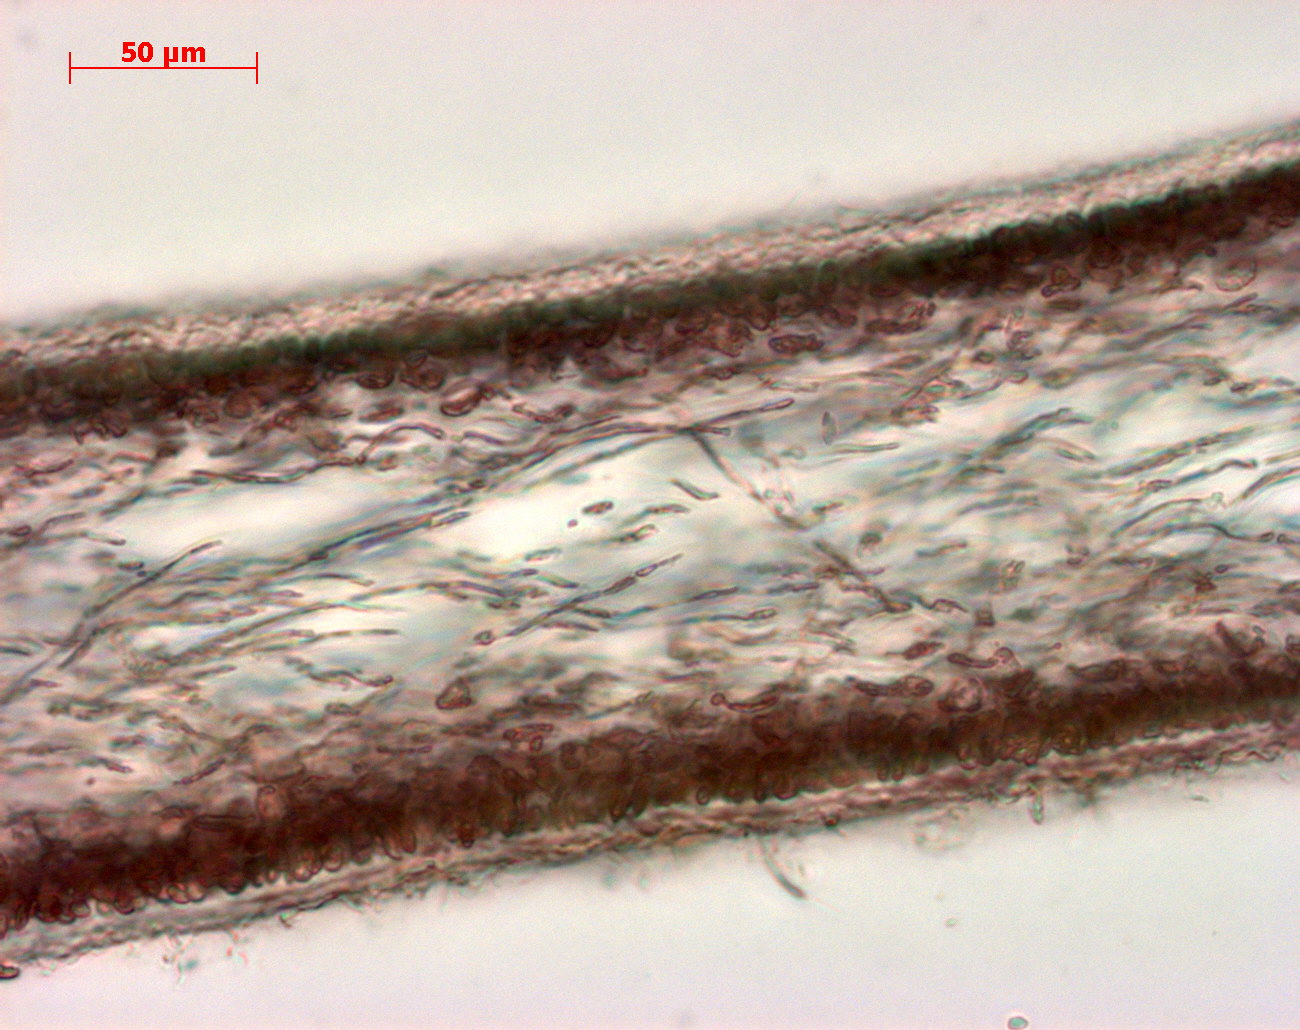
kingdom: Plantae
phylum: Rhodophyta
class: Florideophyceae
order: Halymeniales
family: Halymeniaceae
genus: Cryptonemia
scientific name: Cryptonemia latissima
